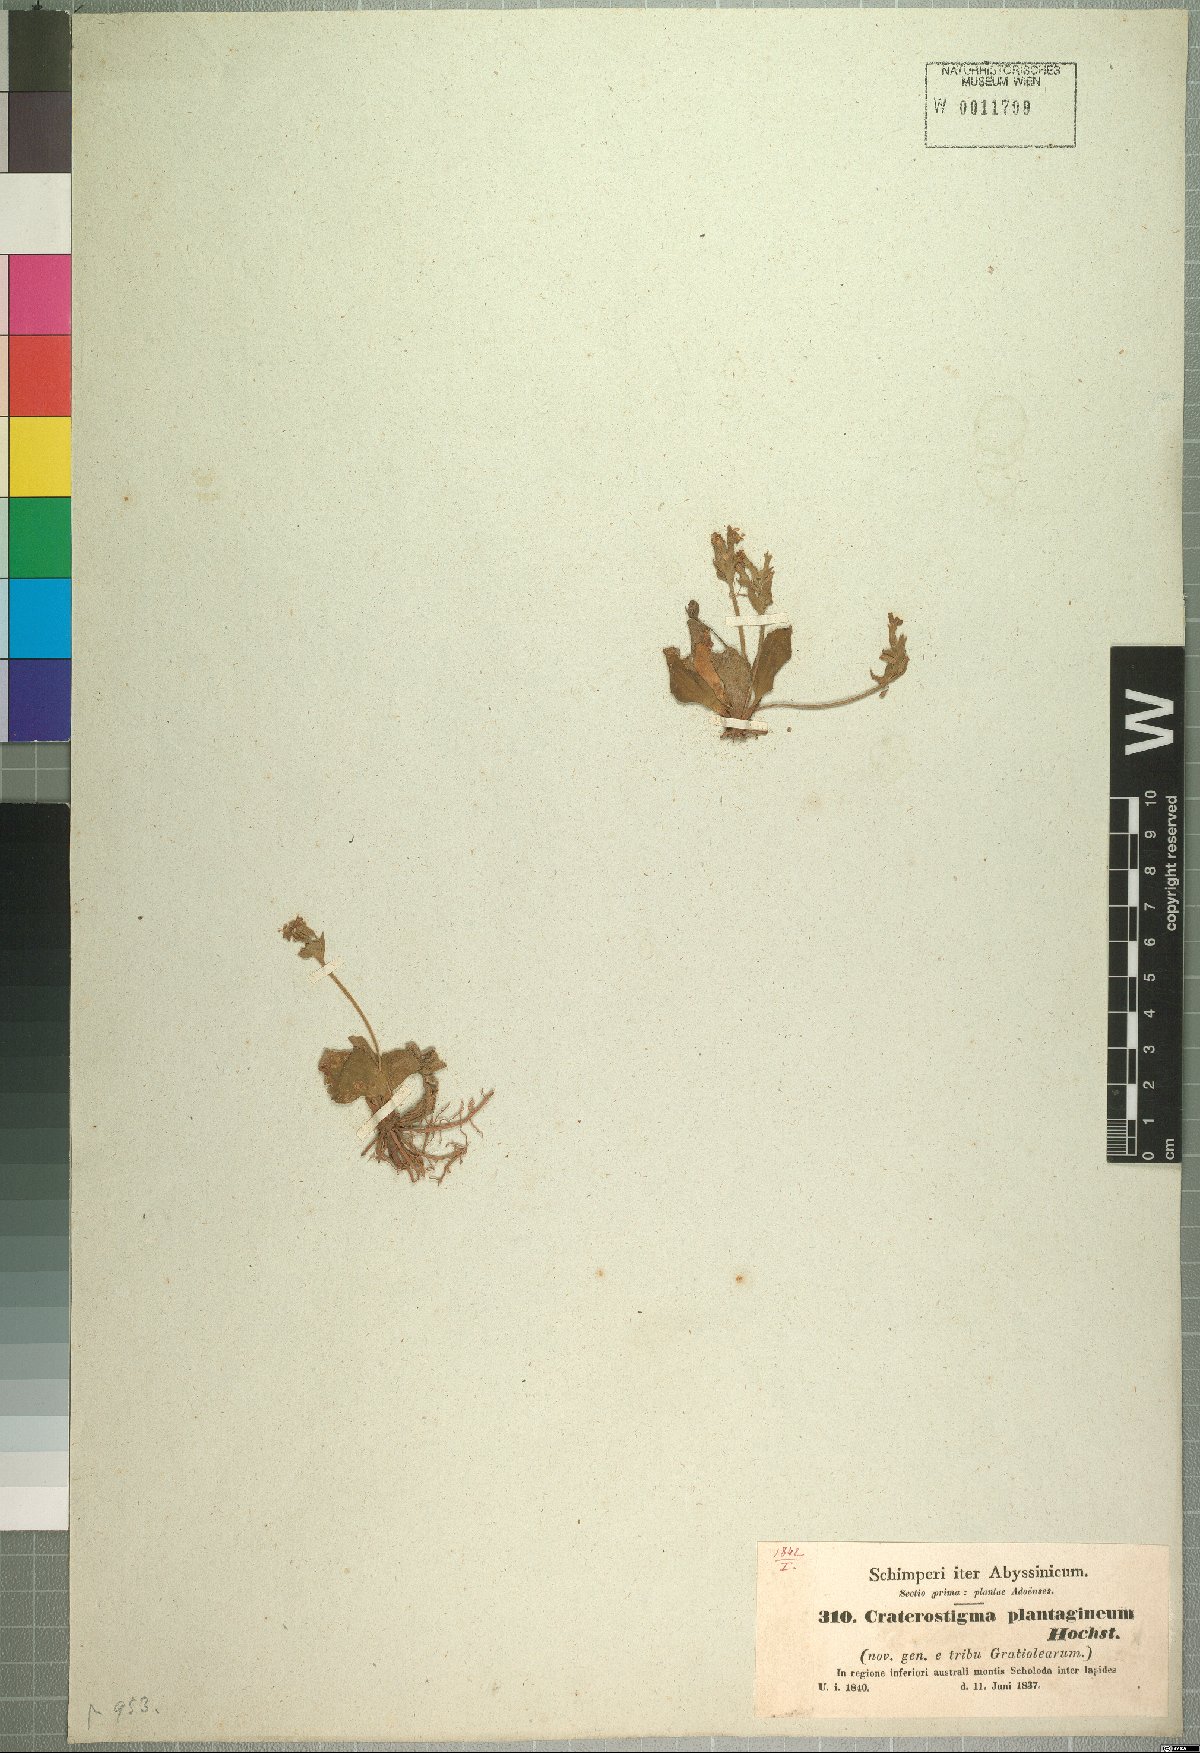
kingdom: Plantae
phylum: Tracheophyta
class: Magnoliopsida
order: Lamiales
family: Linderniaceae
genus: Craterostigma
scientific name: Craterostigma plantagineum
